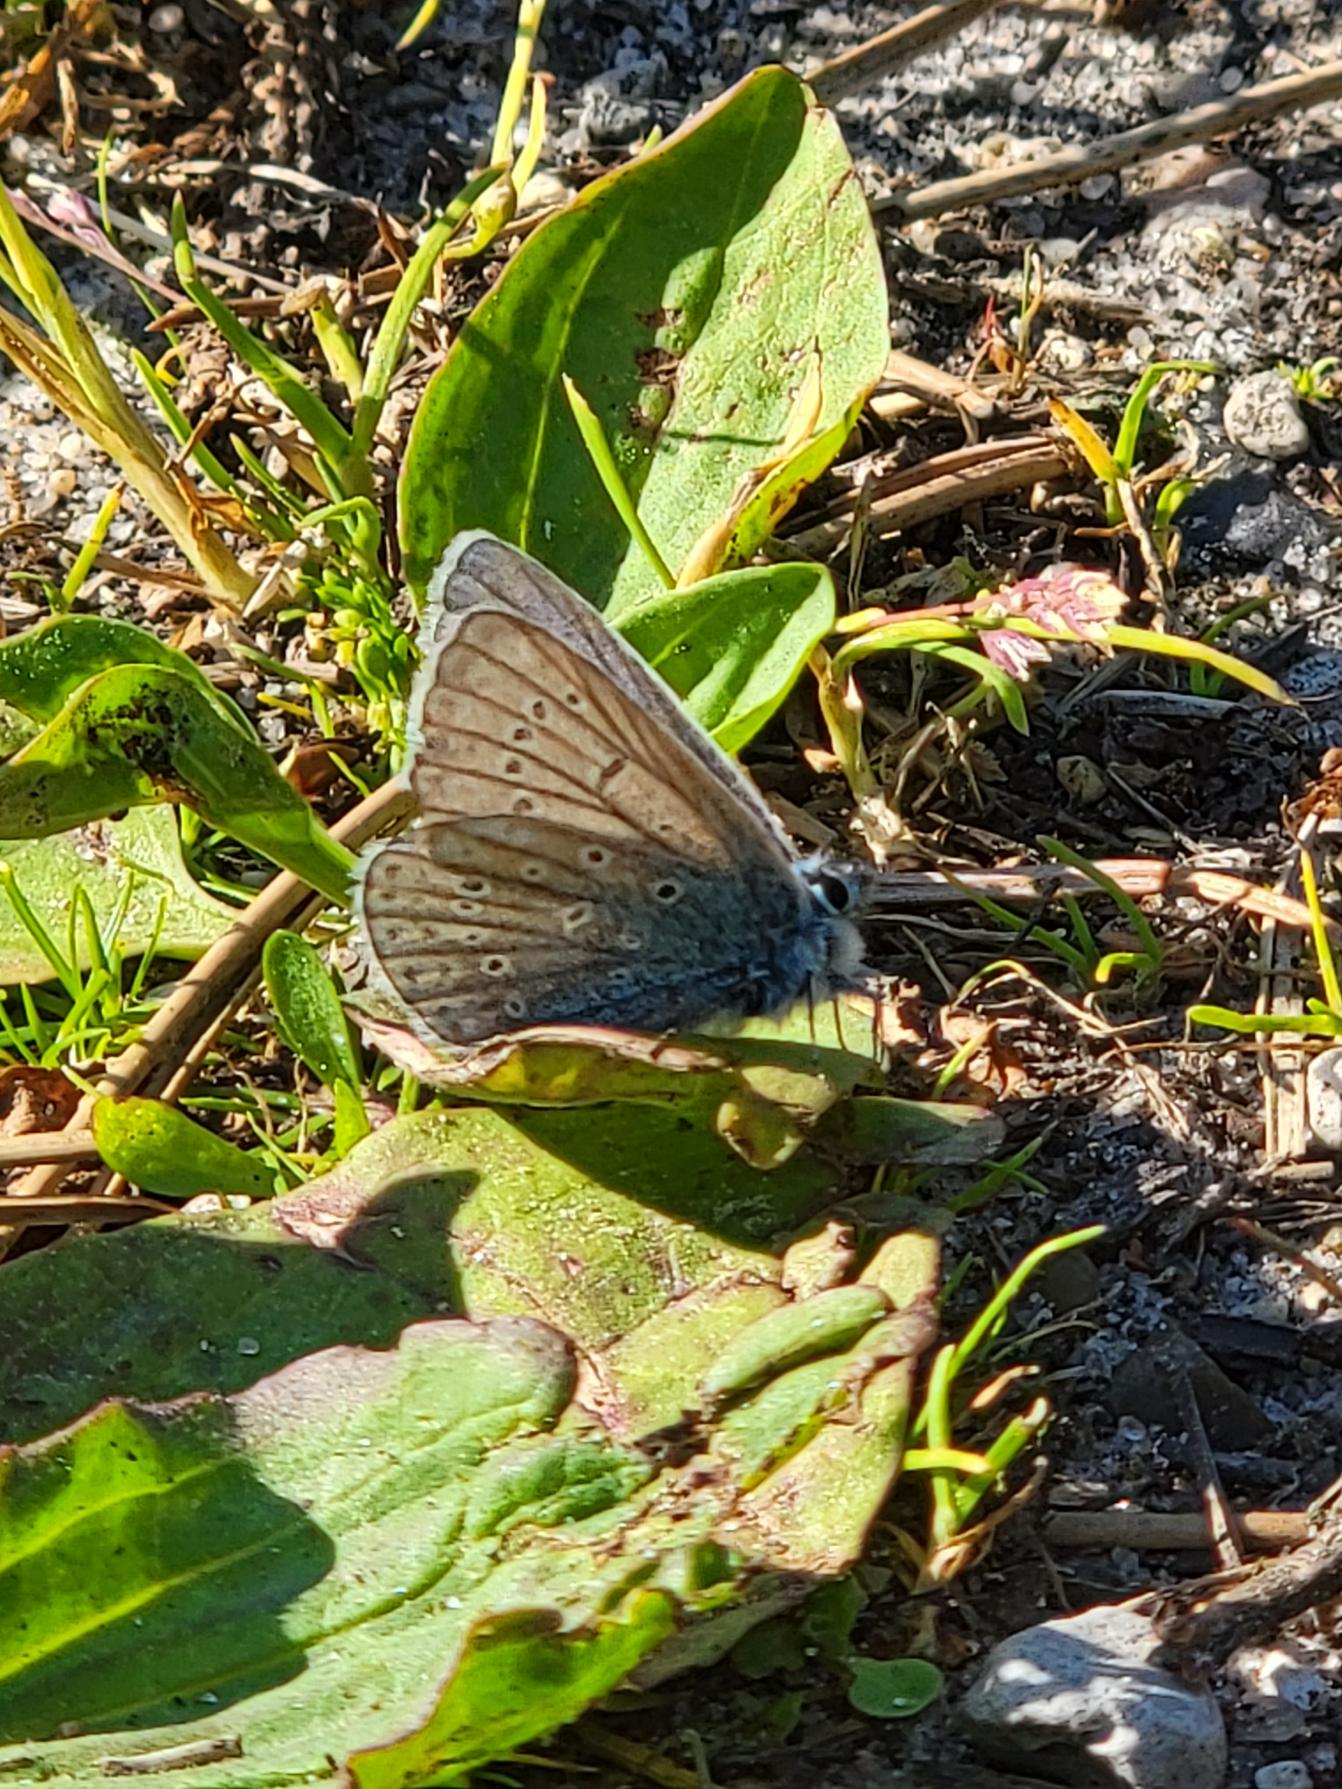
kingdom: Animalia
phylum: Arthropoda
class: Insecta
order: Lepidoptera
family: Lycaenidae
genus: Polyommatus
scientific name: Polyommatus icarus
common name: Almindelig blåfugl
